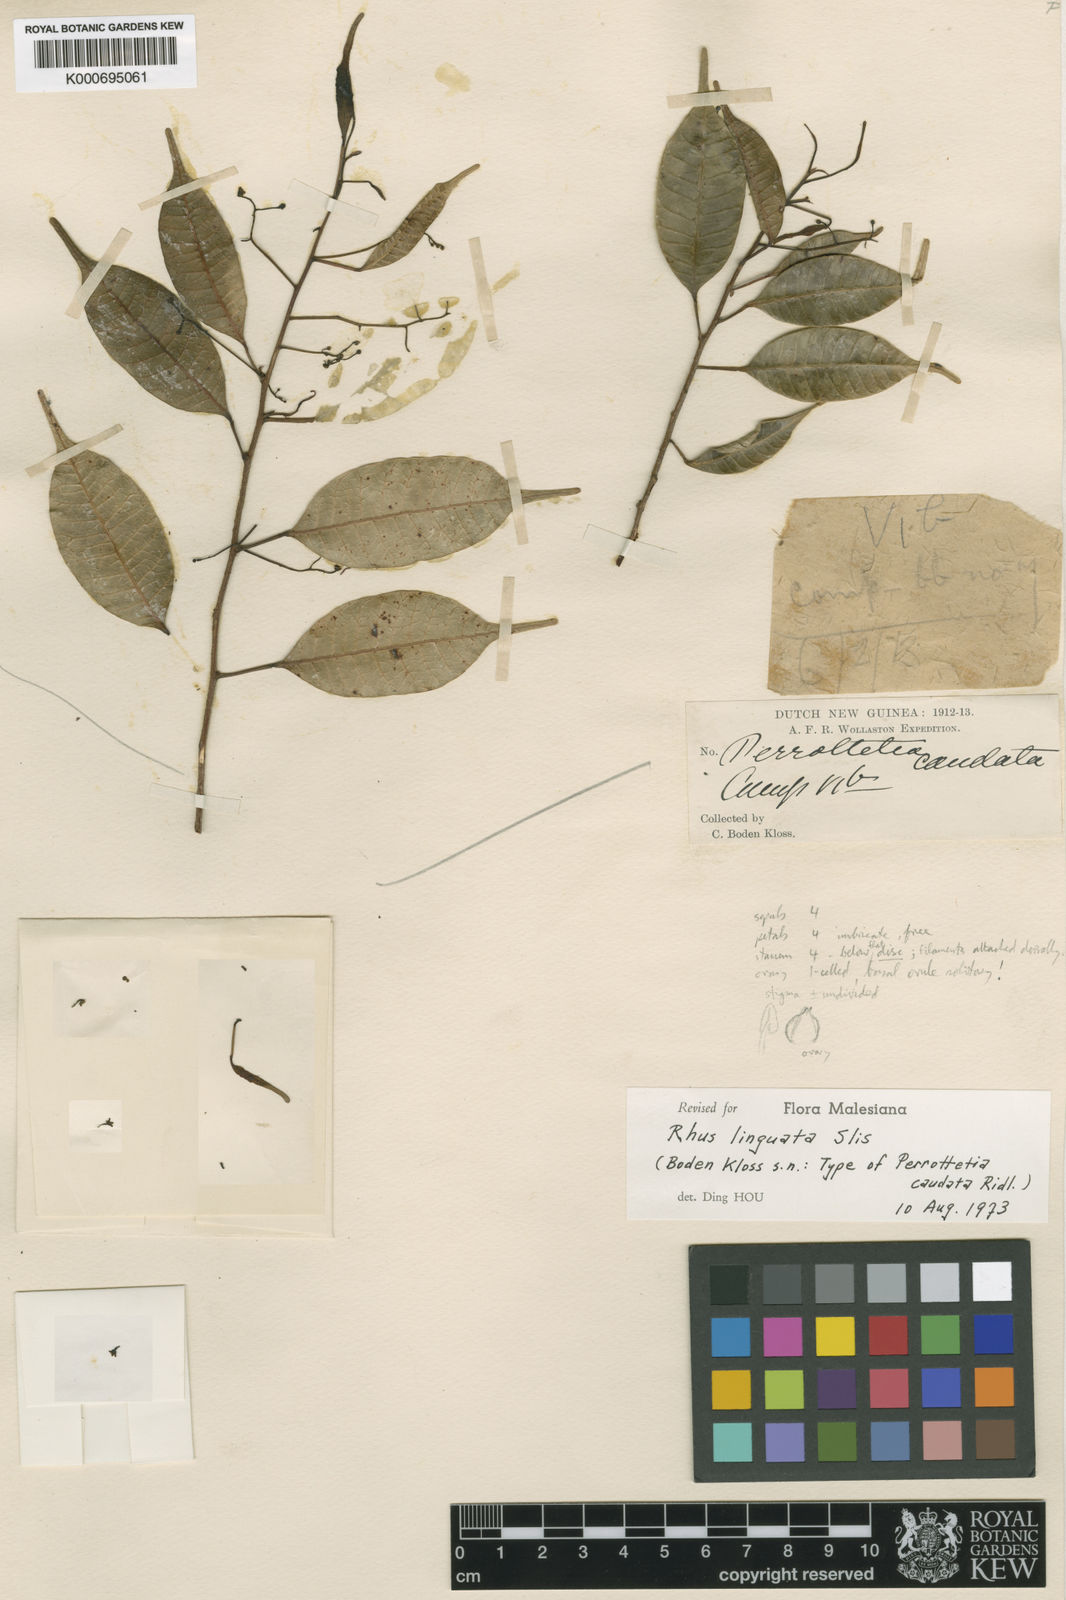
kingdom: Plantae
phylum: Tracheophyta
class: Magnoliopsida
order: Sapindales
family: Anacardiaceae
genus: Rhus
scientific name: Rhus linguata
